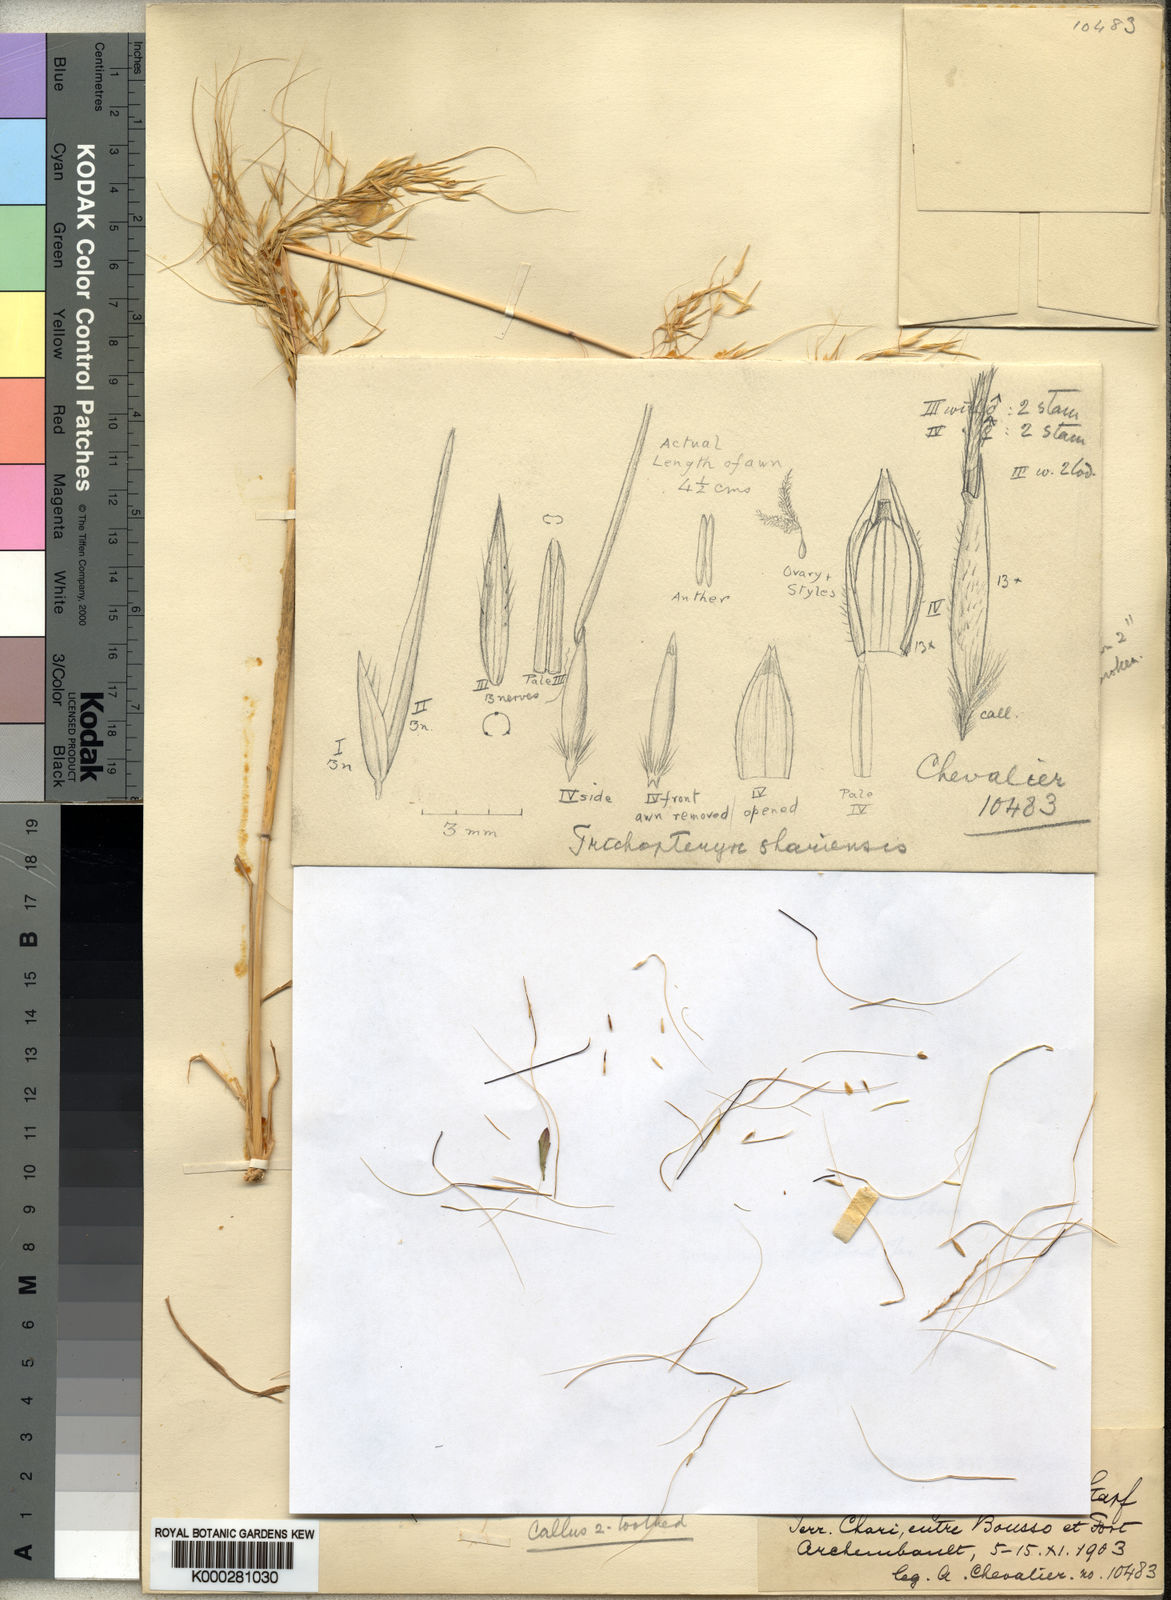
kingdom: Plantae
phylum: Tracheophyta
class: Liliopsida
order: Poales
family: Poaceae
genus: Loudetia
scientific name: Loudetia cerata
